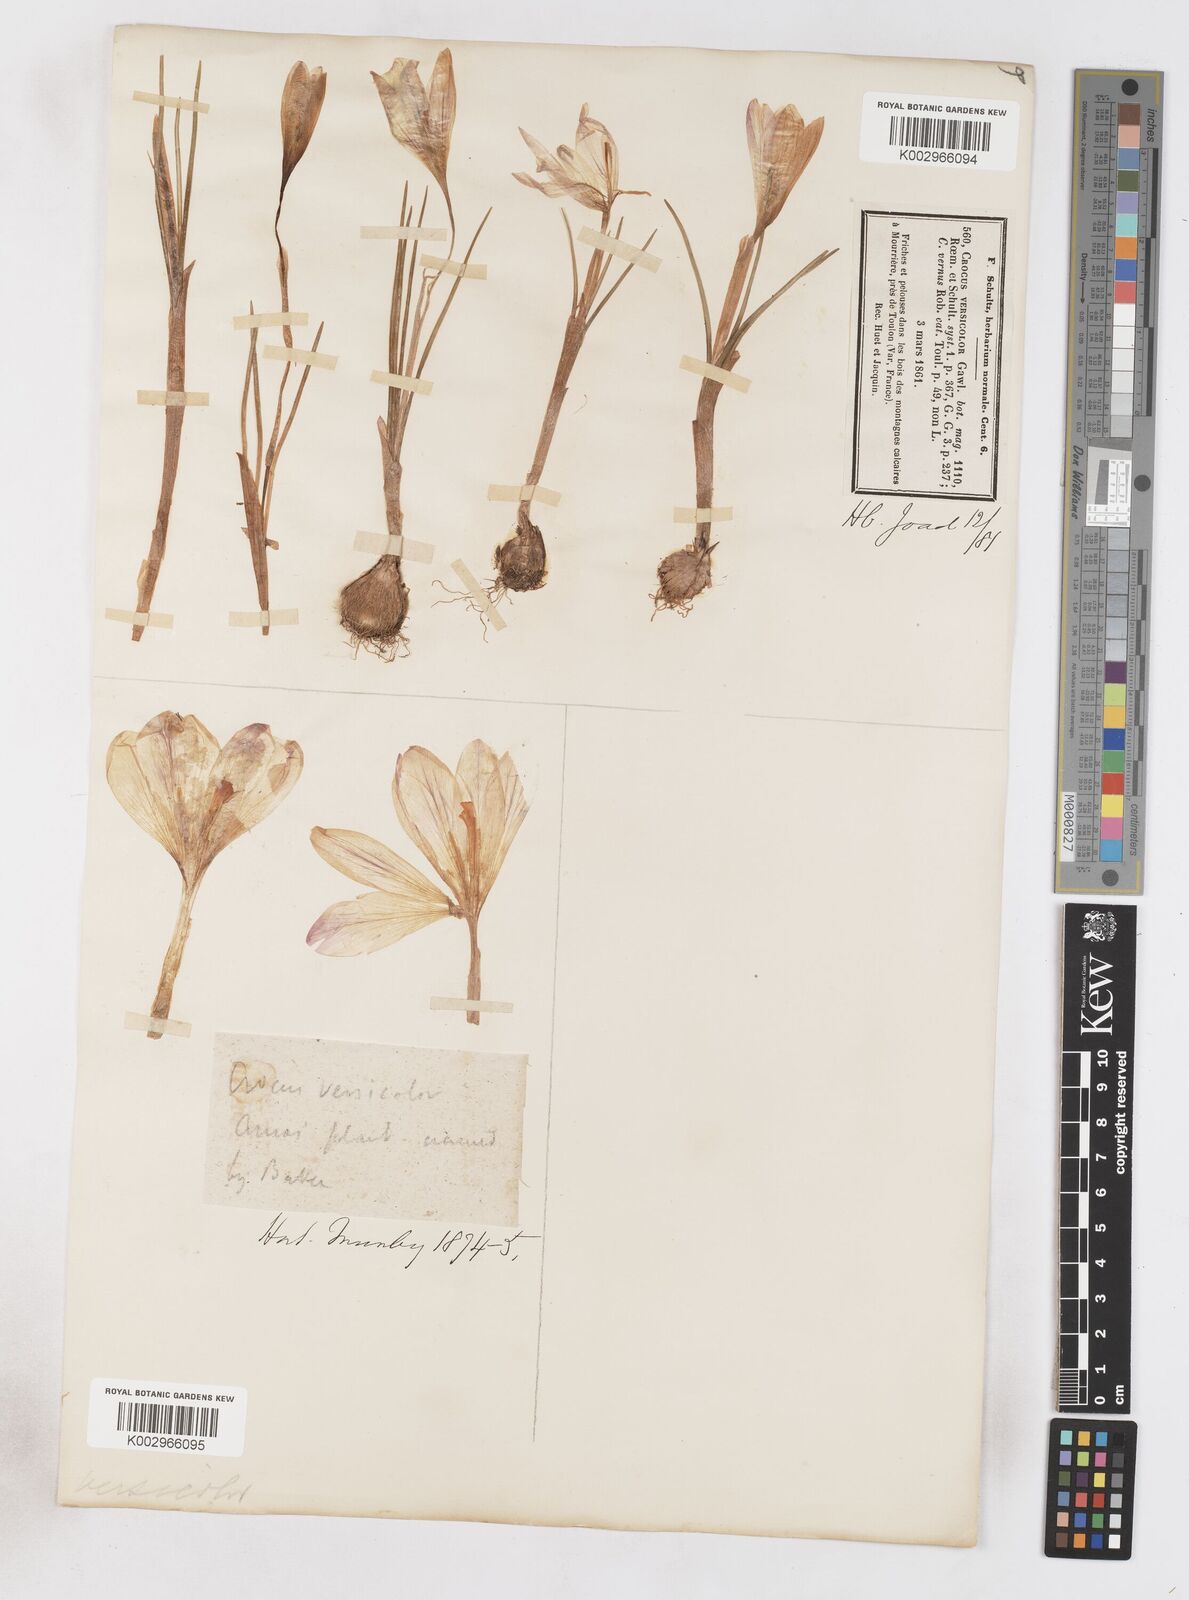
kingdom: Plantae
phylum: Tracheophyta
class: Liliopsida
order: Asparagales
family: Iridaceae
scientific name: Iridaceae
